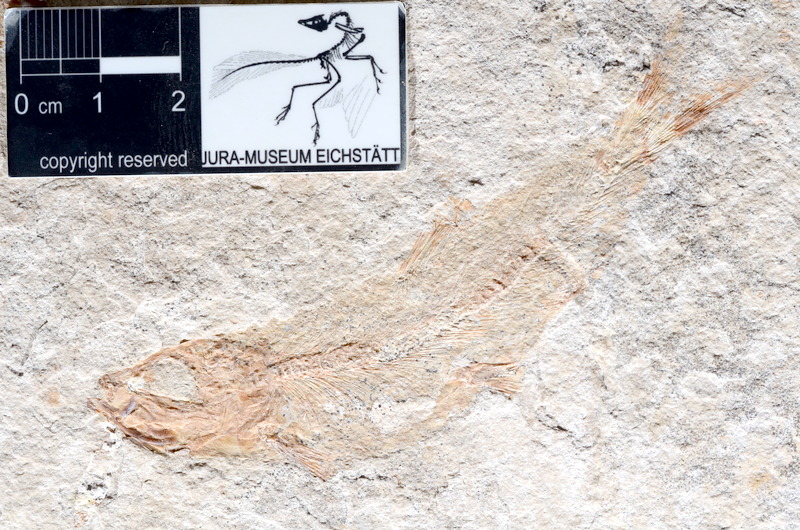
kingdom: Animalia
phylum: Chordata
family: Ascalaboidae
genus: Tharsis
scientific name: Tharsis dubius
